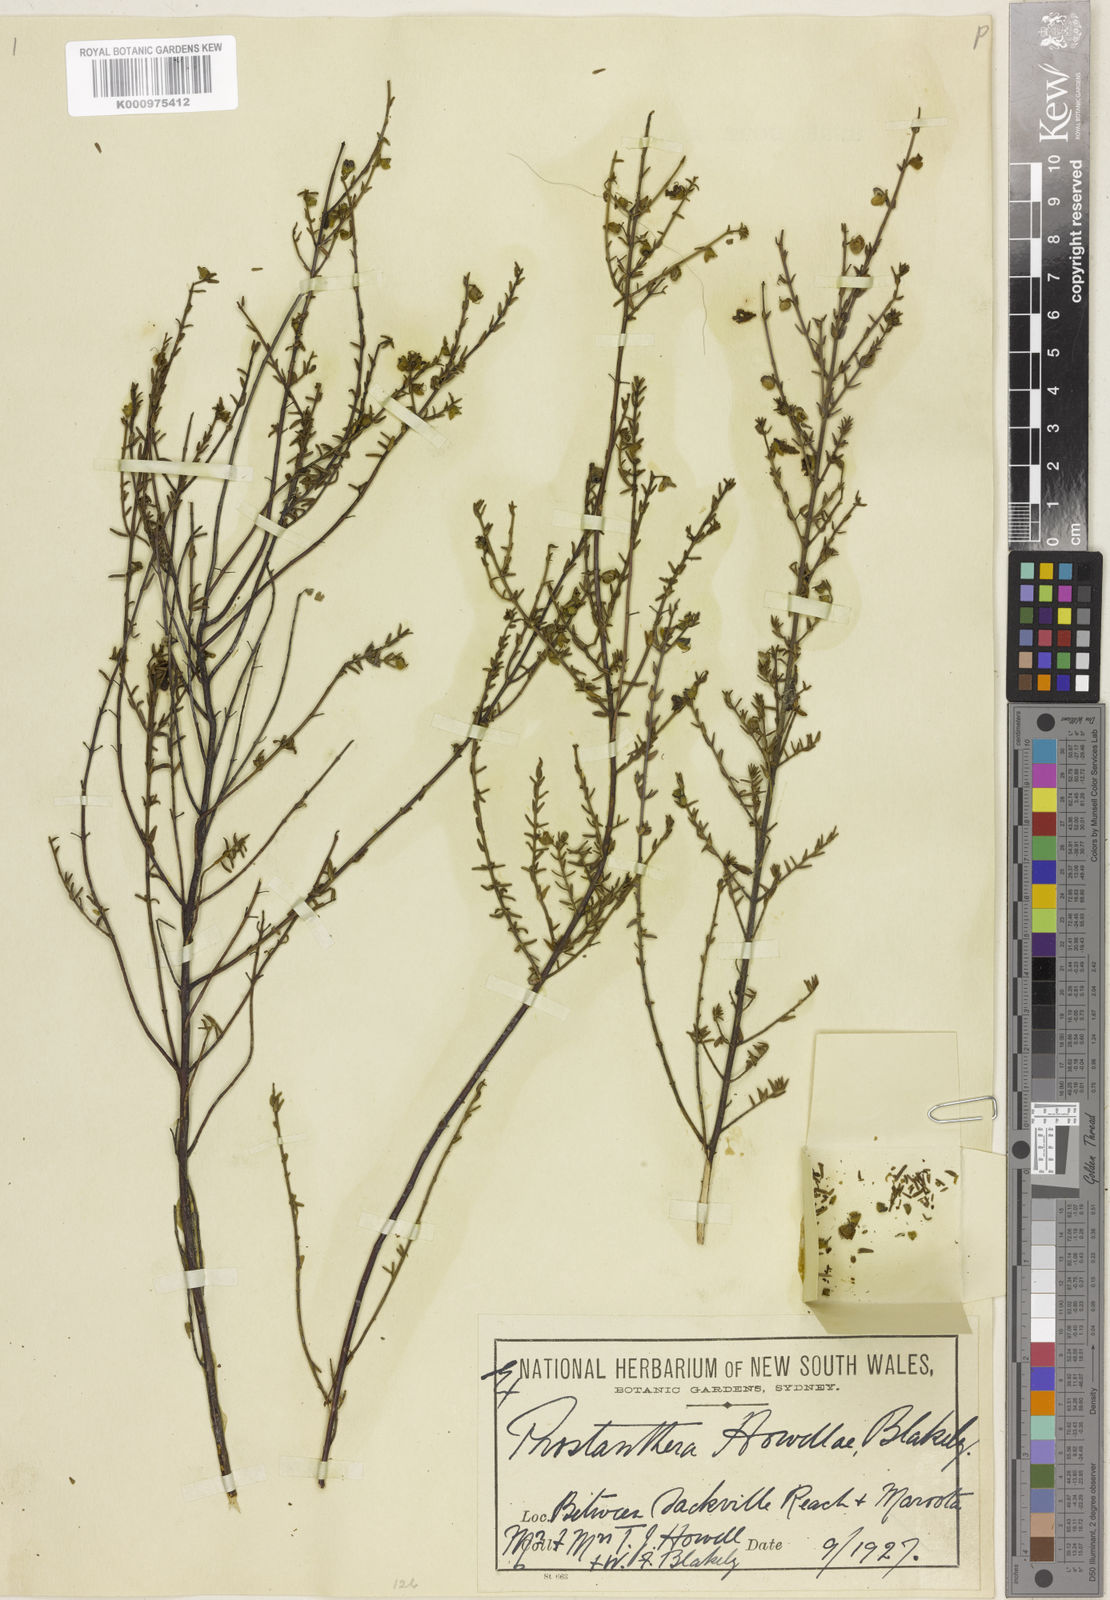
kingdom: Plantae
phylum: Tracheophyta
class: Magnoliopsida
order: Lamiales
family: Lamiaceae
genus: Prostanthera
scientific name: Prostanthera howelliae
